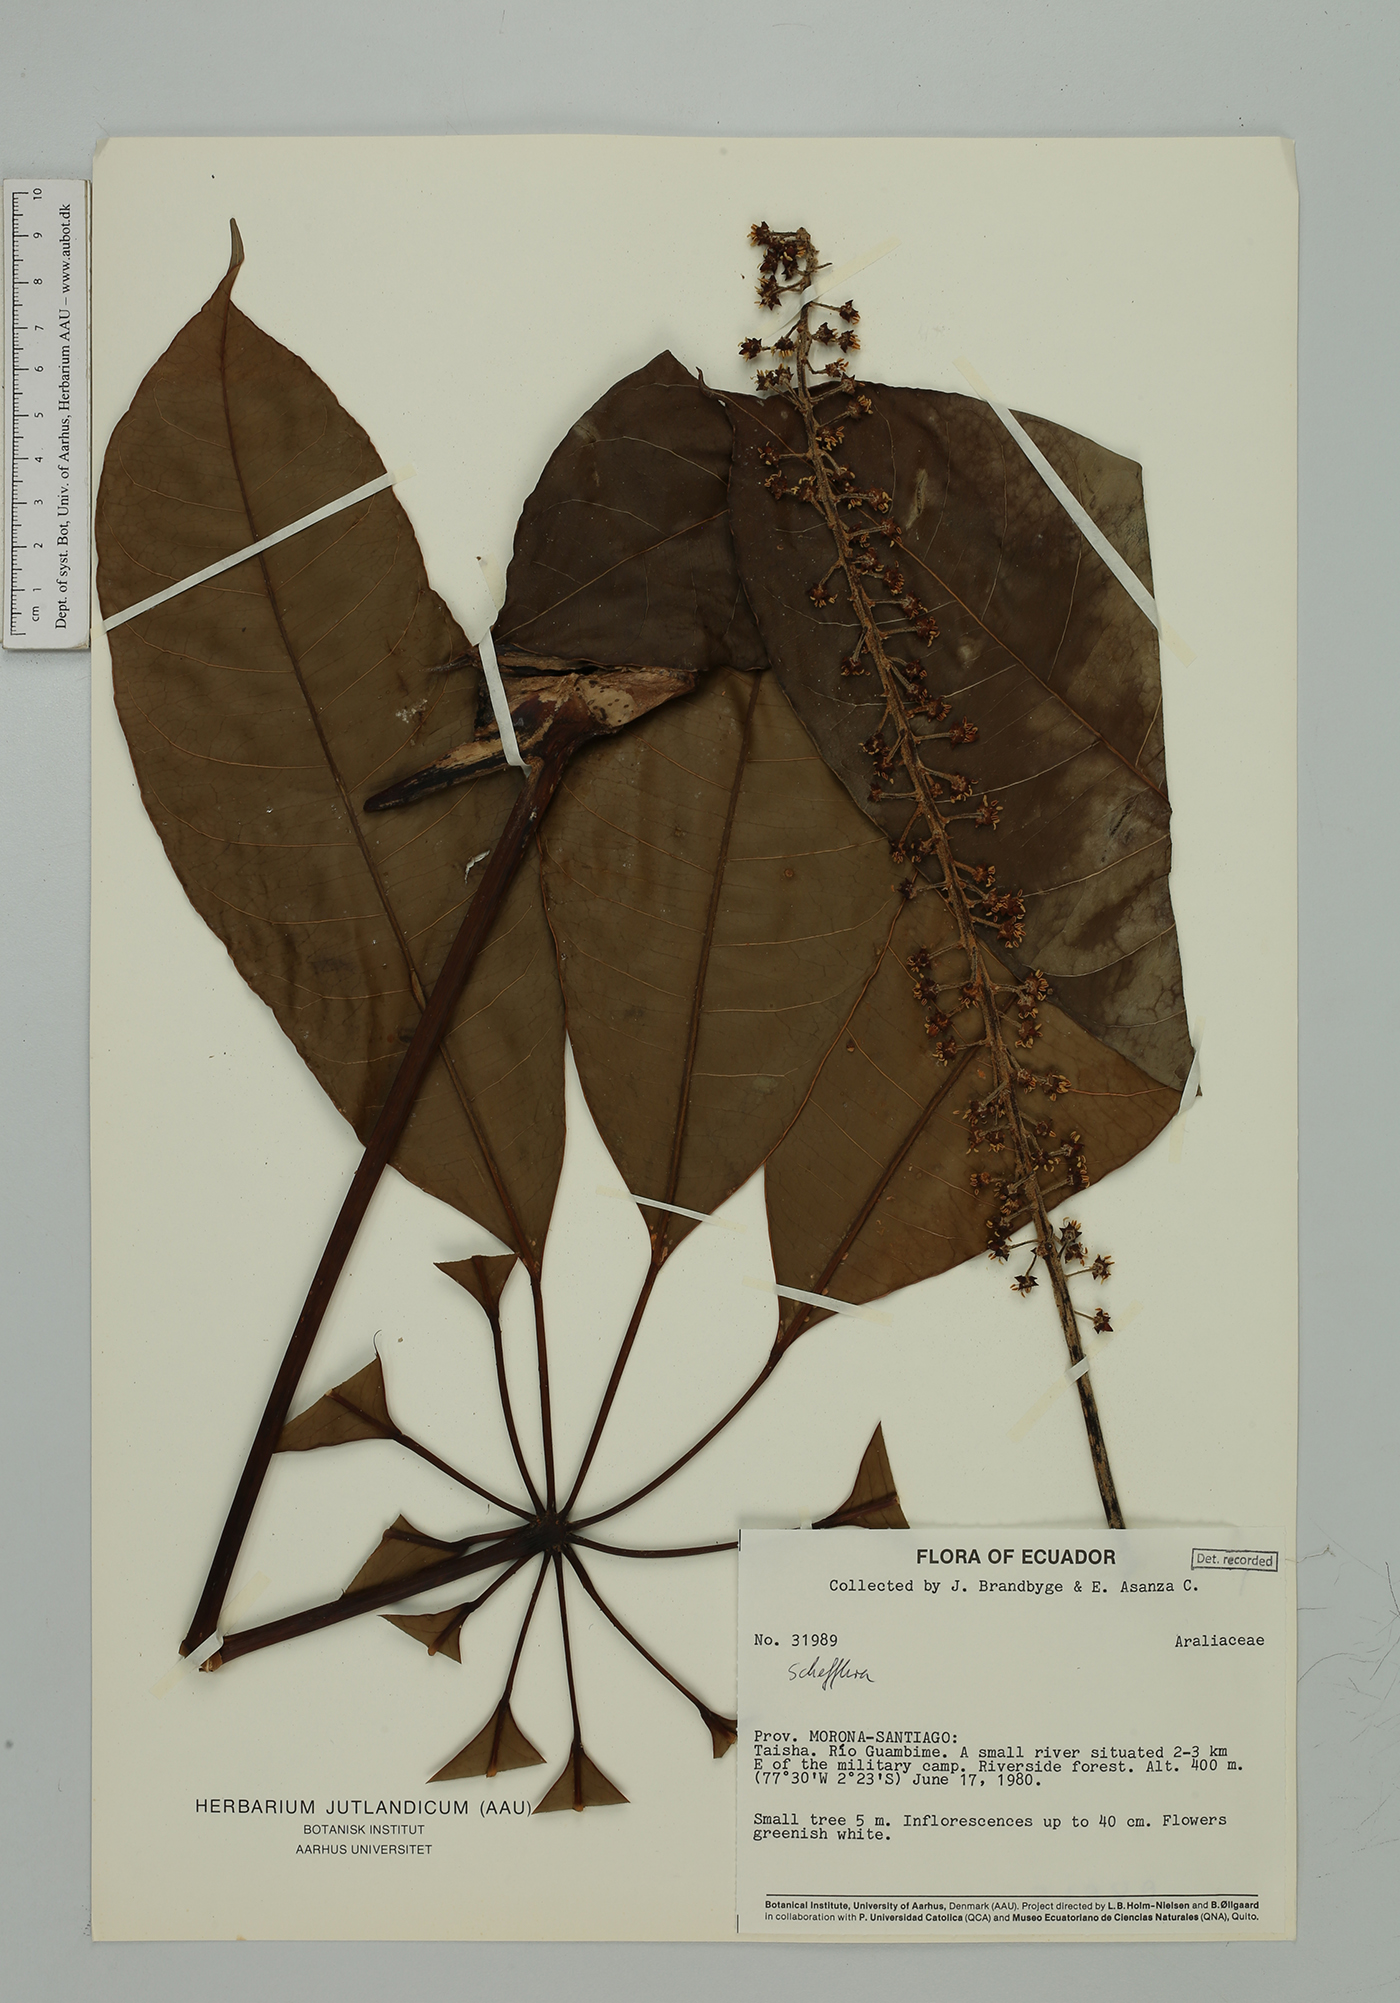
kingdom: Plantae
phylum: Tracheophyta
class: Magnoliopsida
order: Apiales
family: Araliaceae
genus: Sciodaphyllum
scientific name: Sciodaphyllum sprucei
